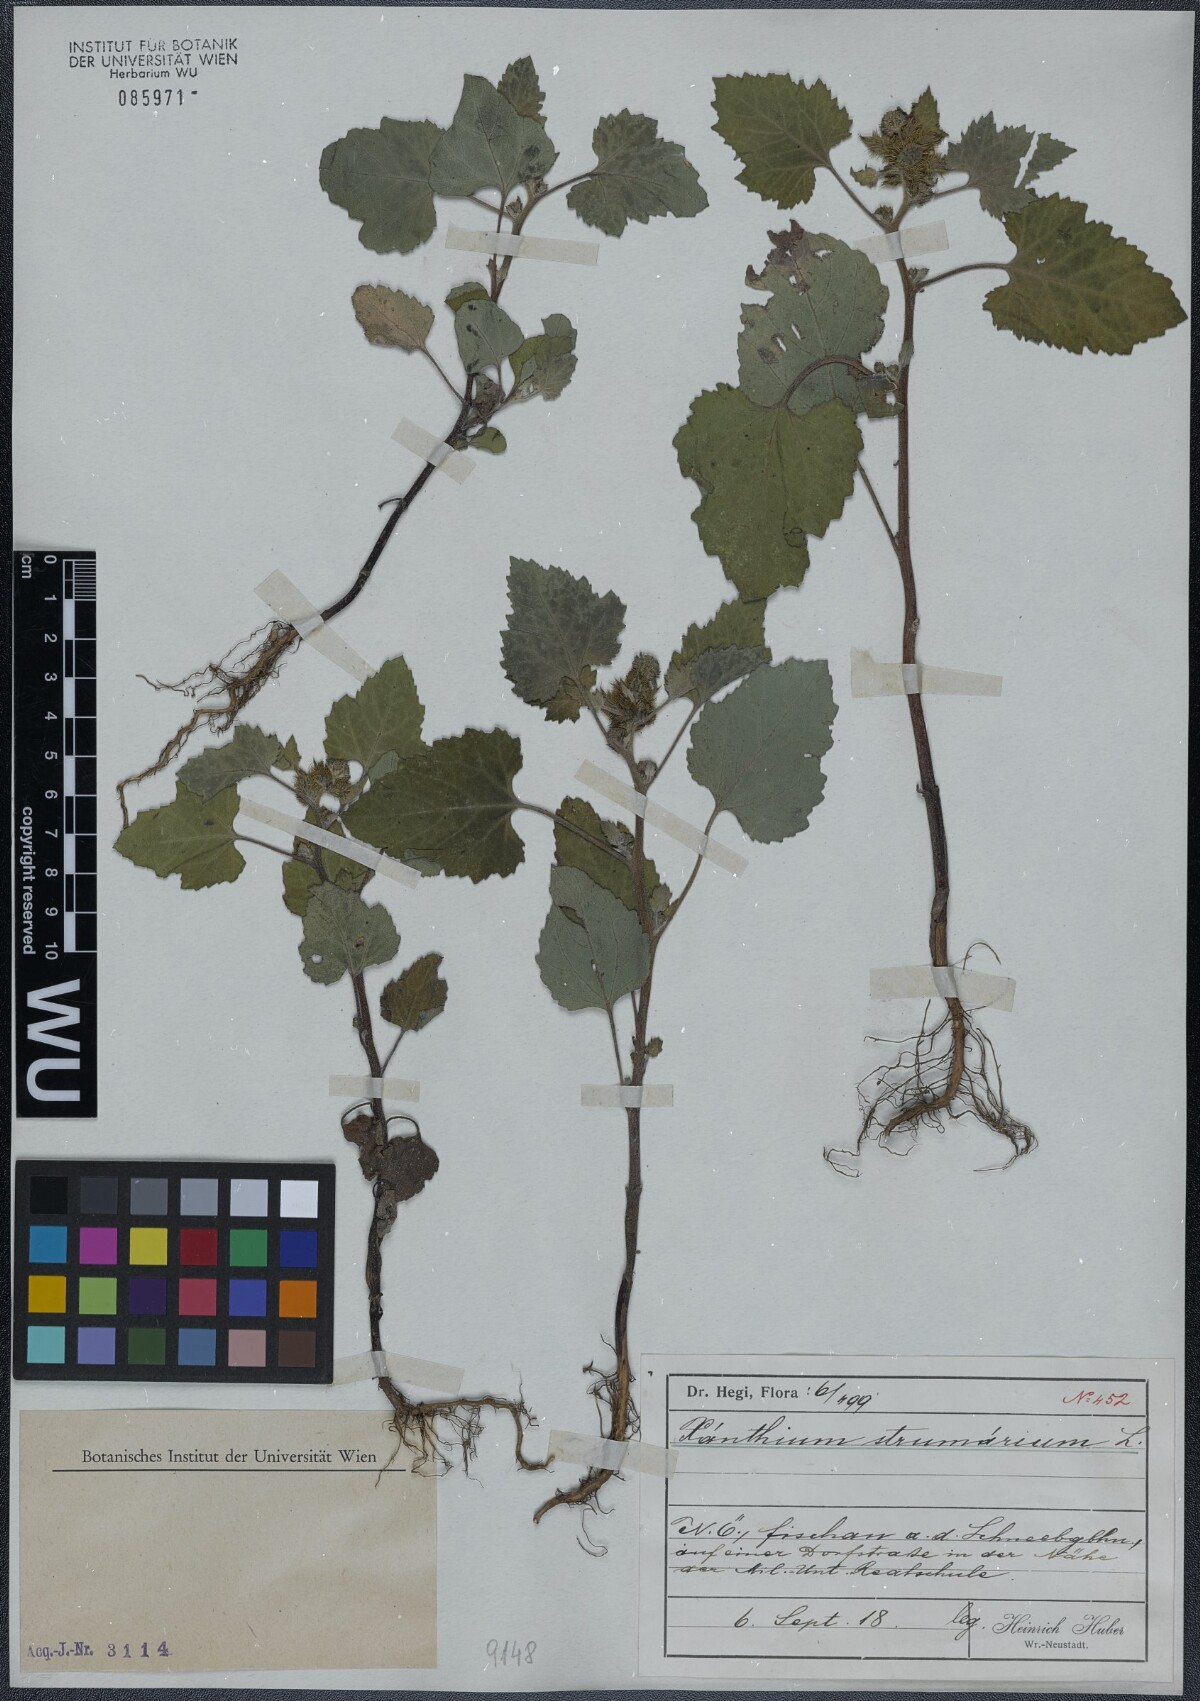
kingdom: Plantae
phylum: Tracheophyta
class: Magnoliopsida
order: Asterales
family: Asteraceae
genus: Xanthium
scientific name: Xanthium strumarium
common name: Rough cocklebur
